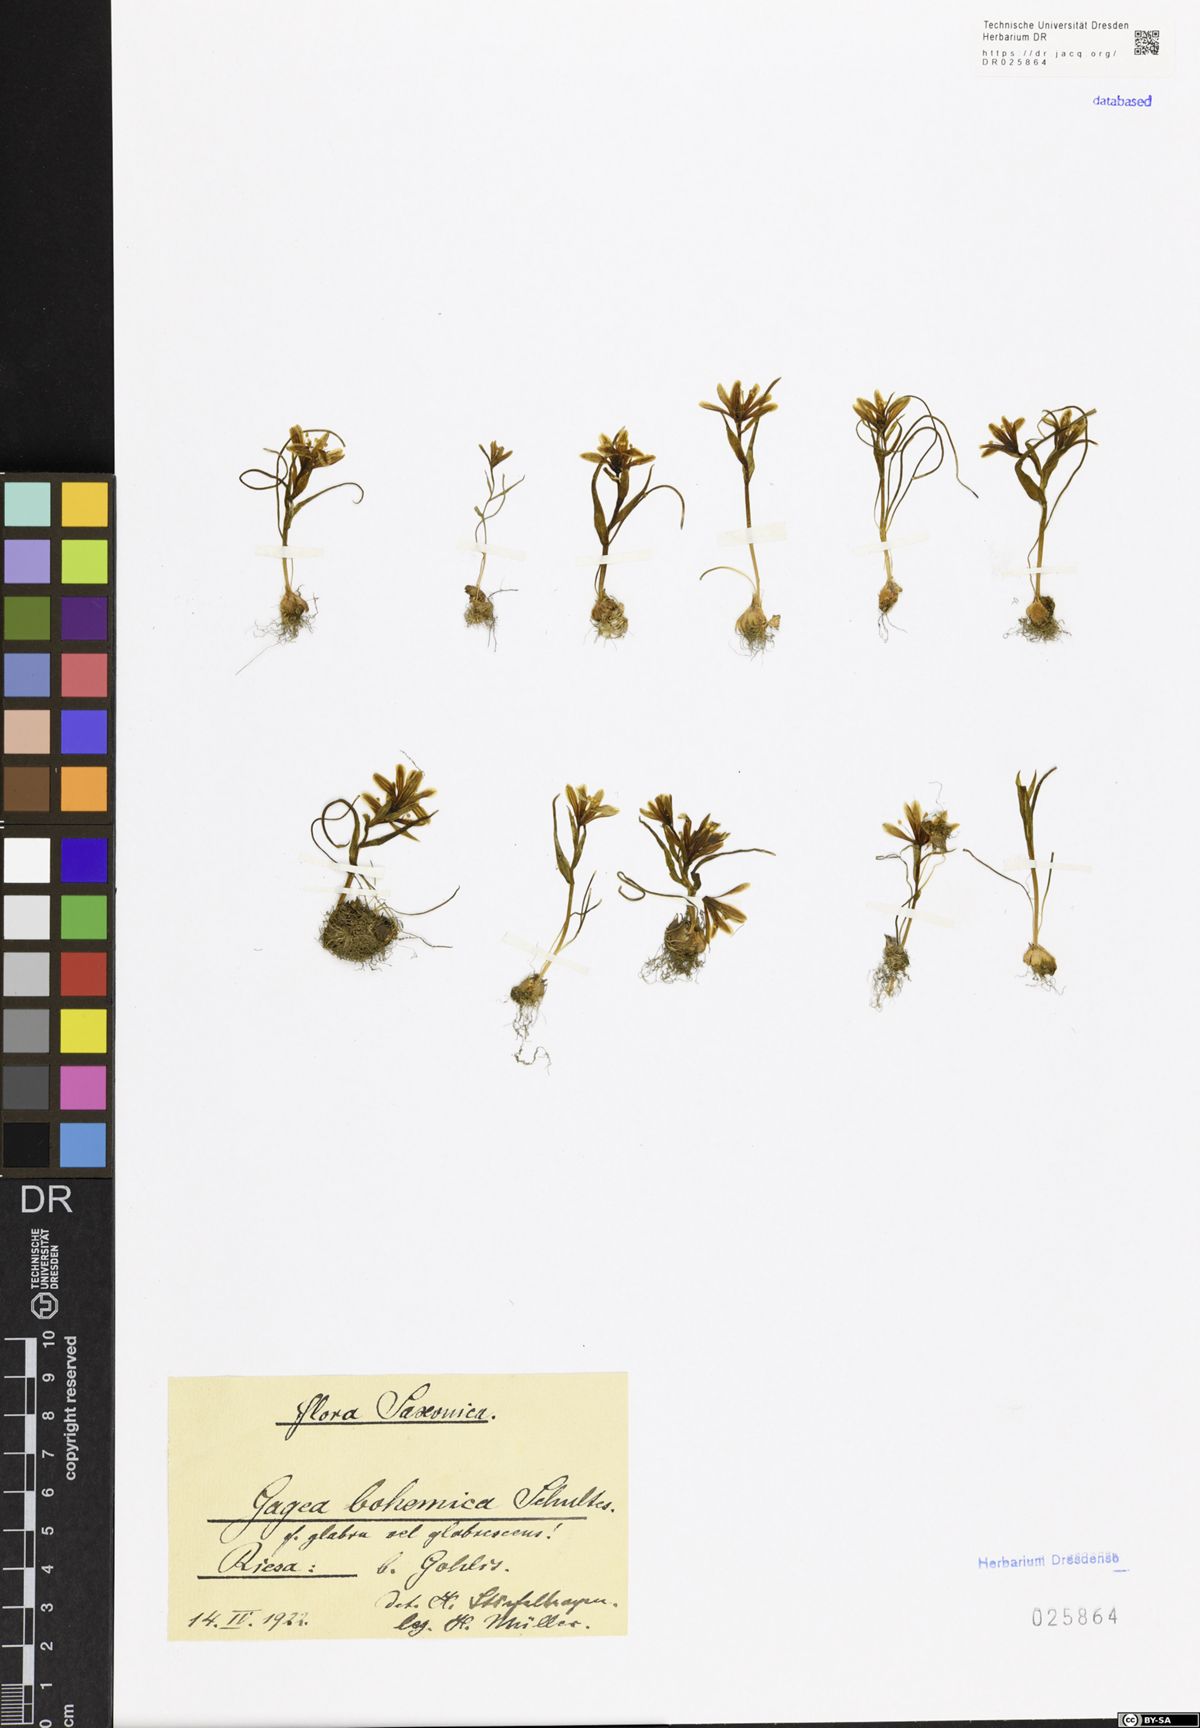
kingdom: Plantae
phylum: Tracheophyta
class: Liliopsida
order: Liliales
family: Liliaceae
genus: Gagea
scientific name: Gagea bohemica
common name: Early star-of-bethlehem
